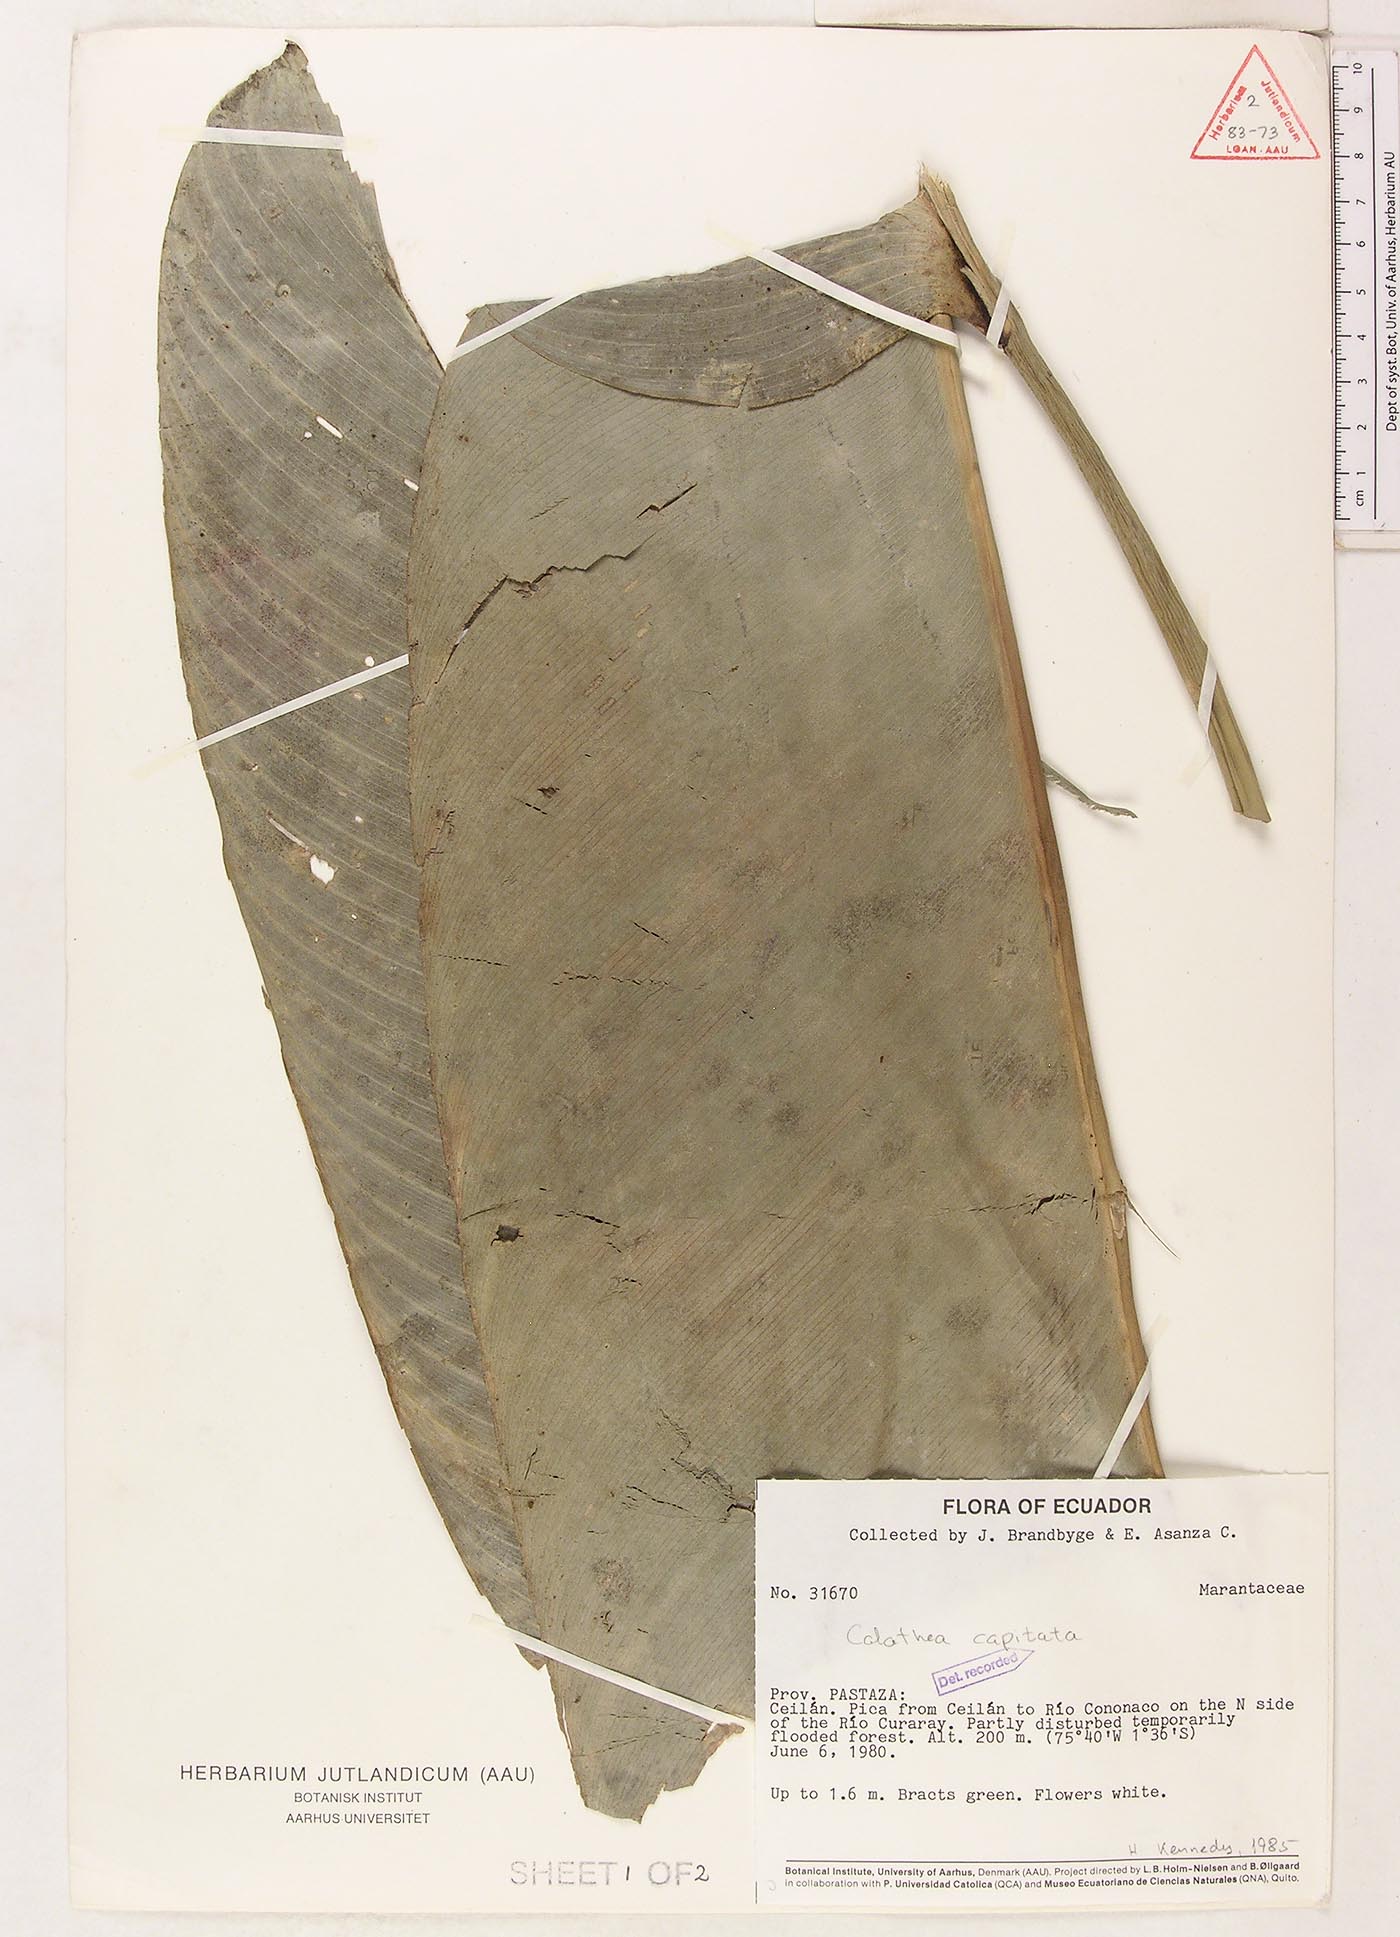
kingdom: Plantae
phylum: Tracheophyta
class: Liliopsida
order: Zingiberales
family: Marantaceae
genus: Goeppertia
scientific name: Goeppertia capitata
